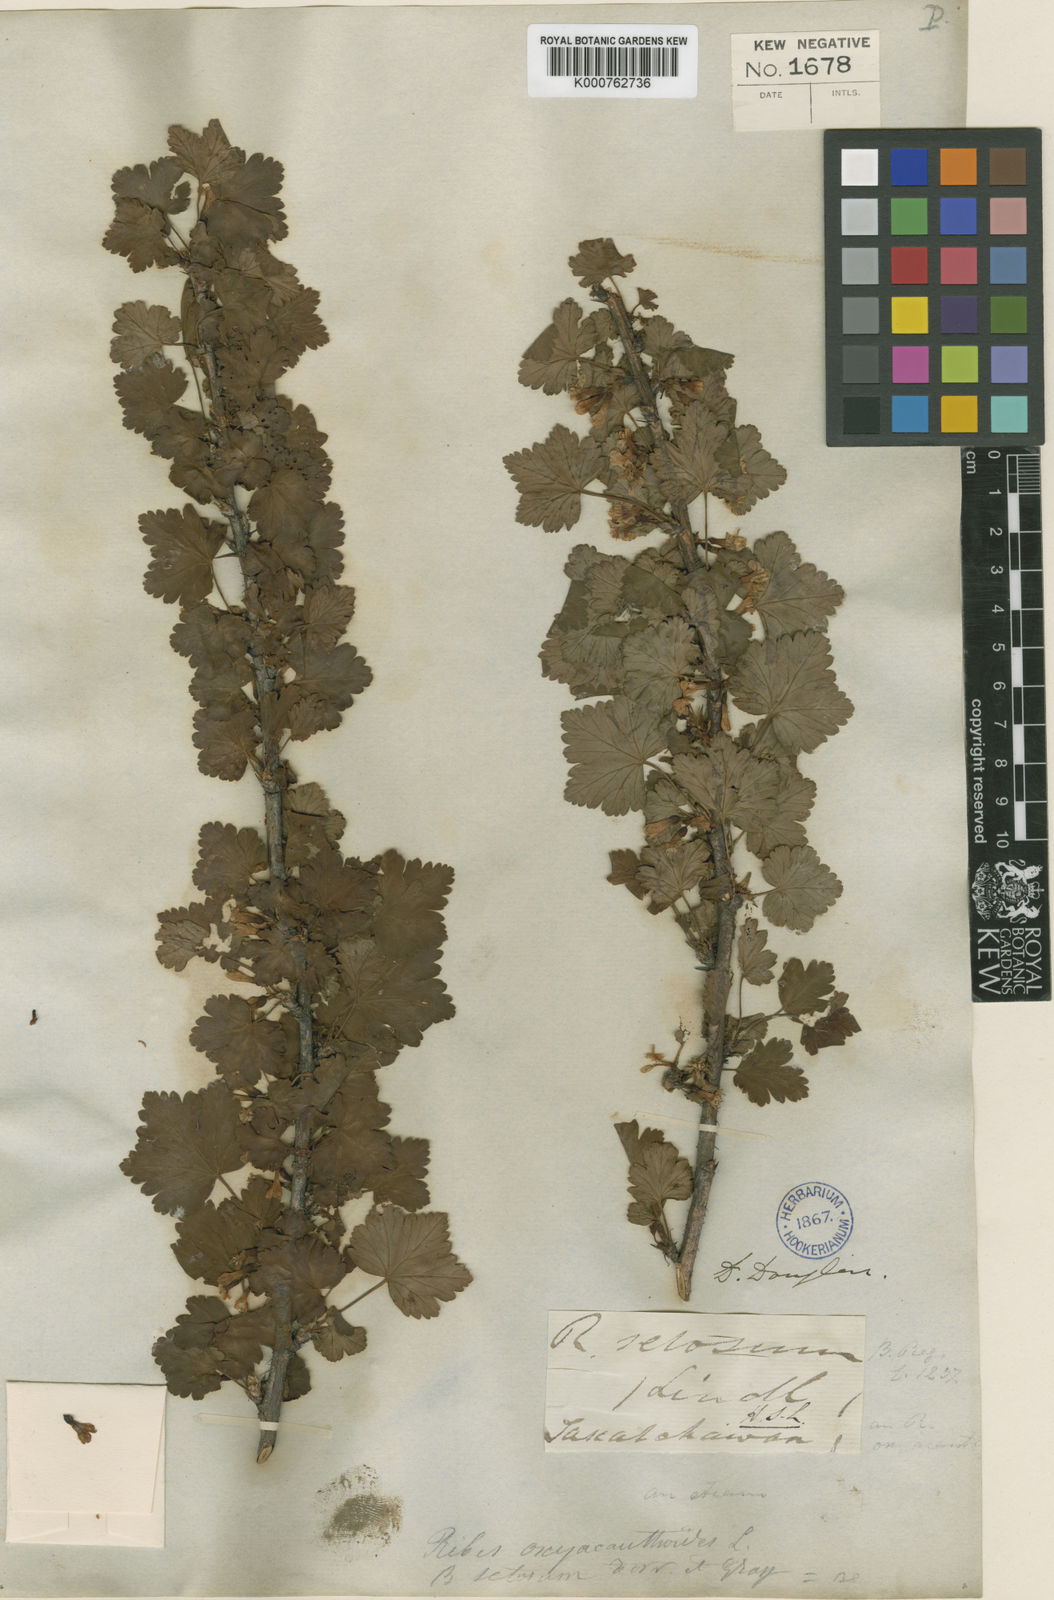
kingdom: Plantae
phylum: Tracheophyta
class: Magnoliopsida
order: Saxifragales
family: Grossulariaceae
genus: Ribes
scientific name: Ribes oxyacanthoides
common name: Northern gooseberry
